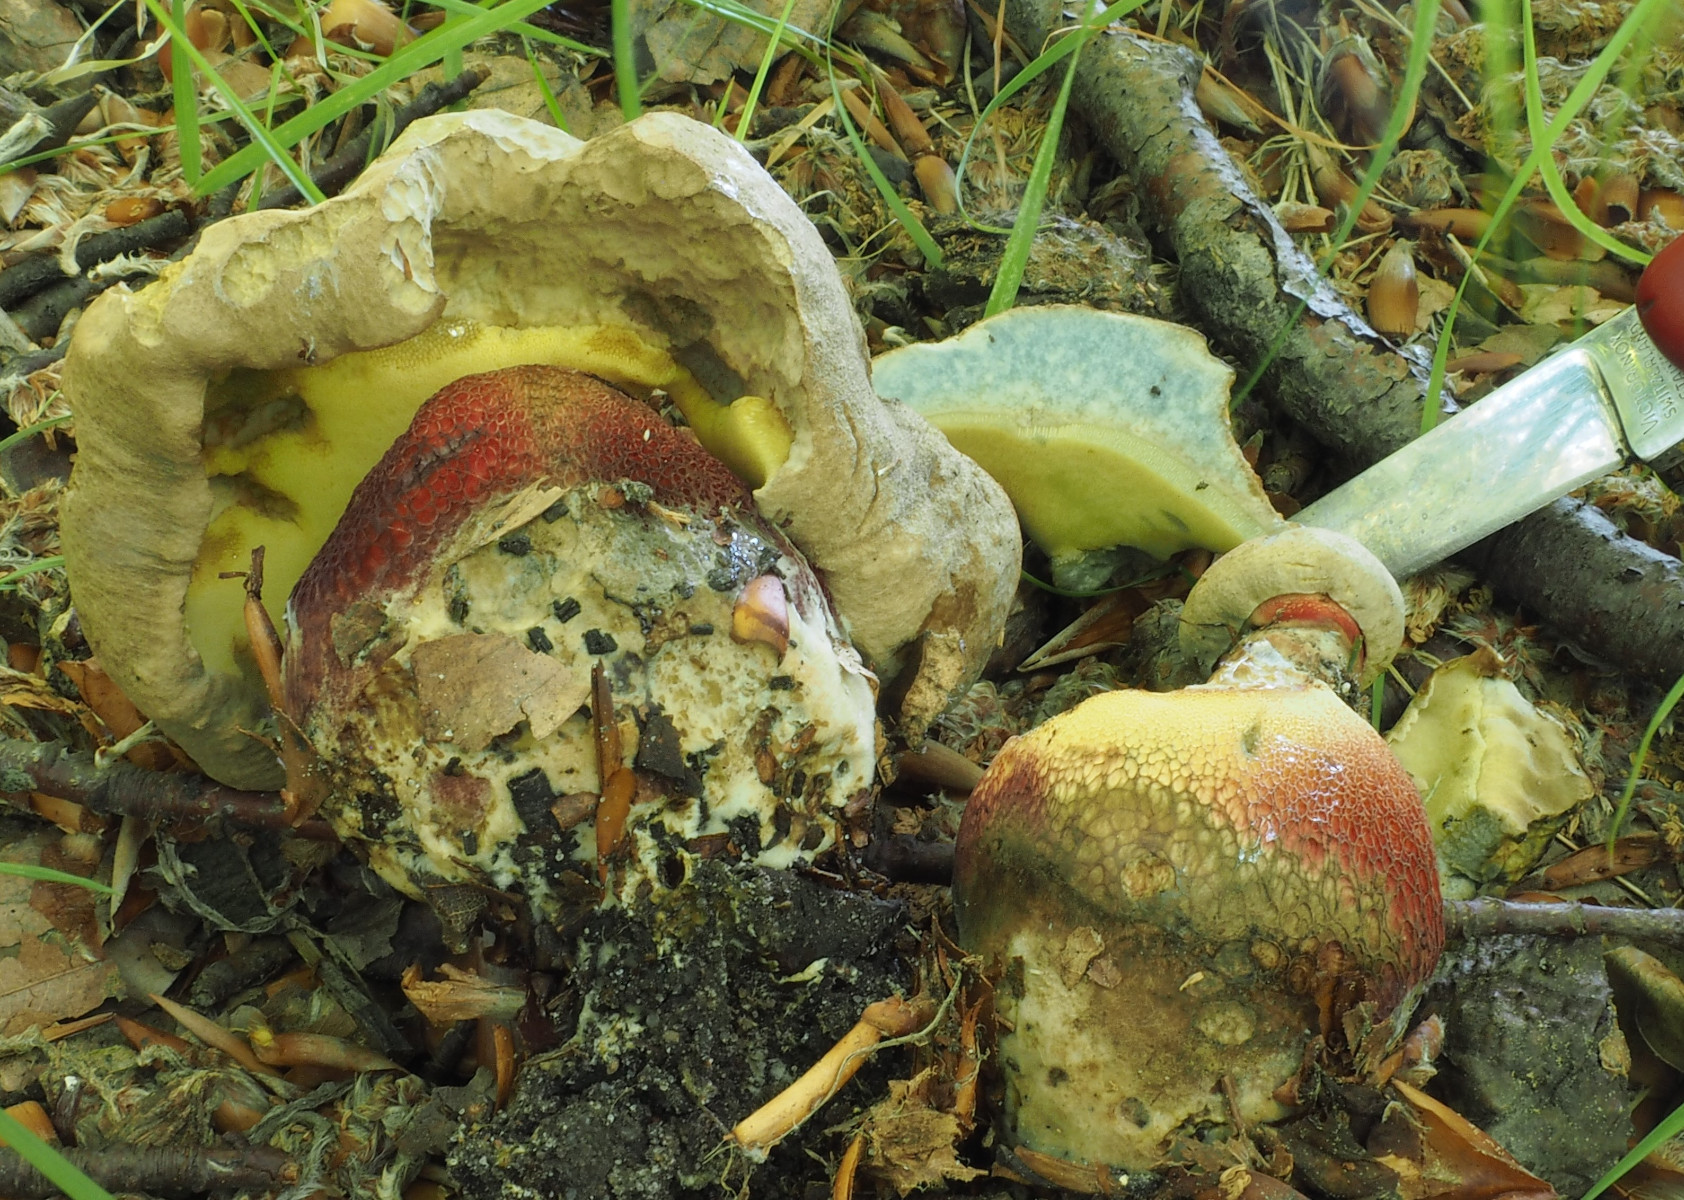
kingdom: Fungi
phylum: Basidiomycota
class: Agaricomycetes
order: Boletales
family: Boletaceae
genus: Caloboletus
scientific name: Caloboletus calopus
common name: skønfodet rørhat
